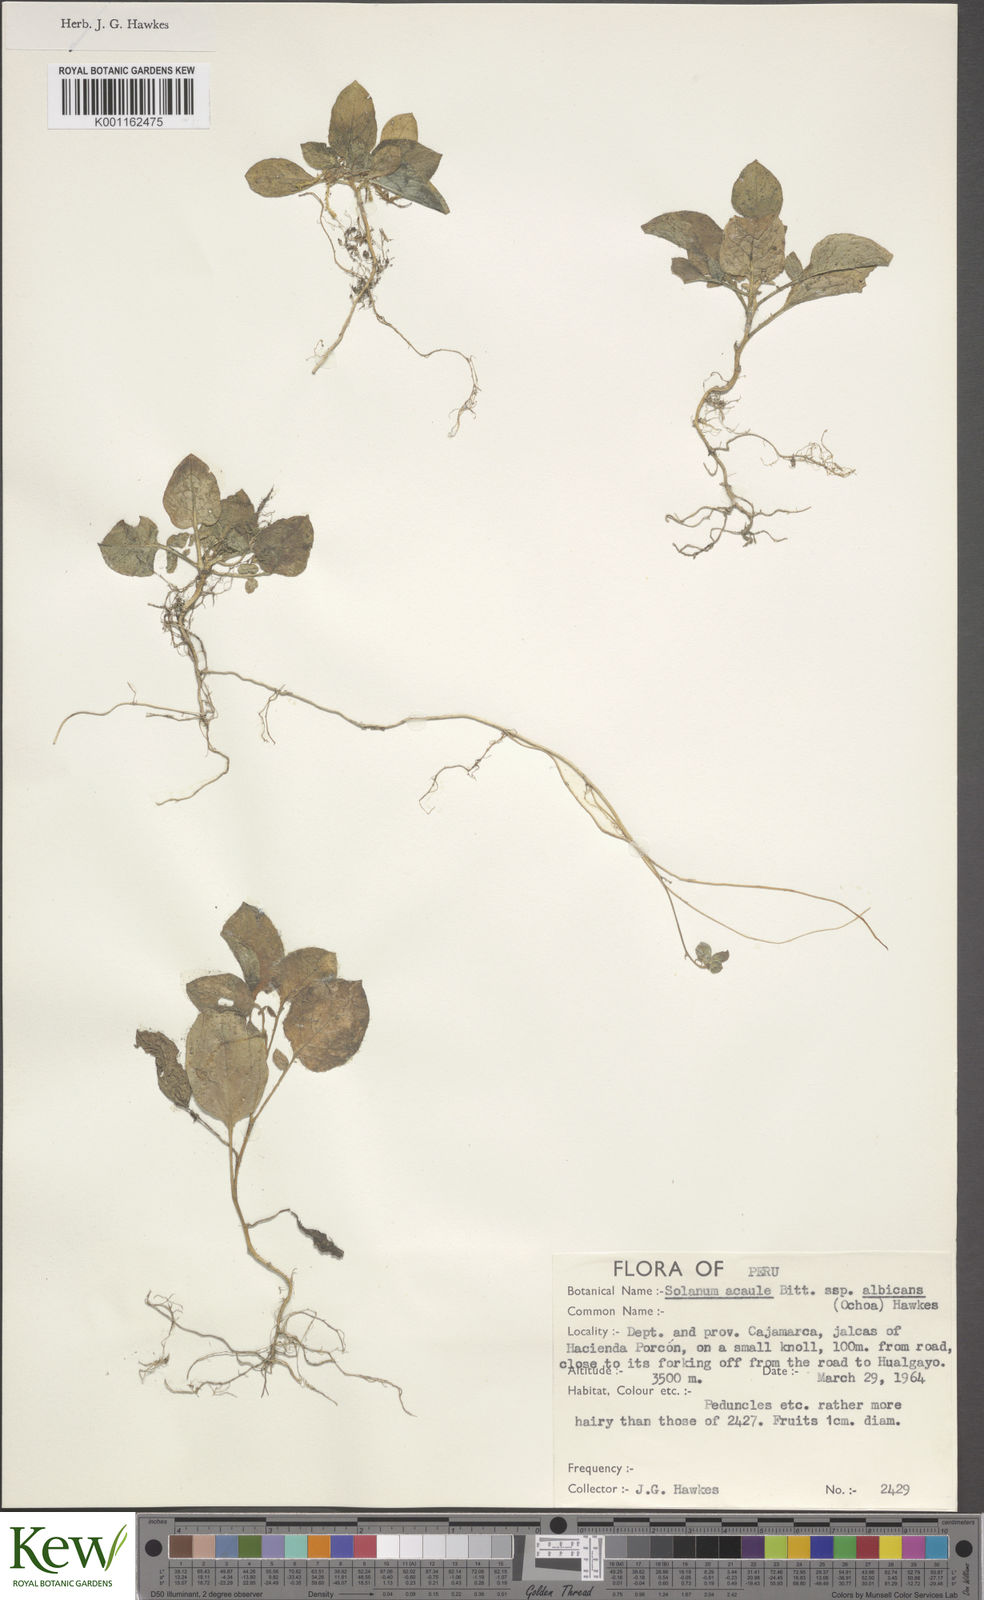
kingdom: Plantae
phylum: Tracheophyta
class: Magnoliopsida
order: Solanales
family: Solanaceae
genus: Solanum
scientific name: Solanum albicans
